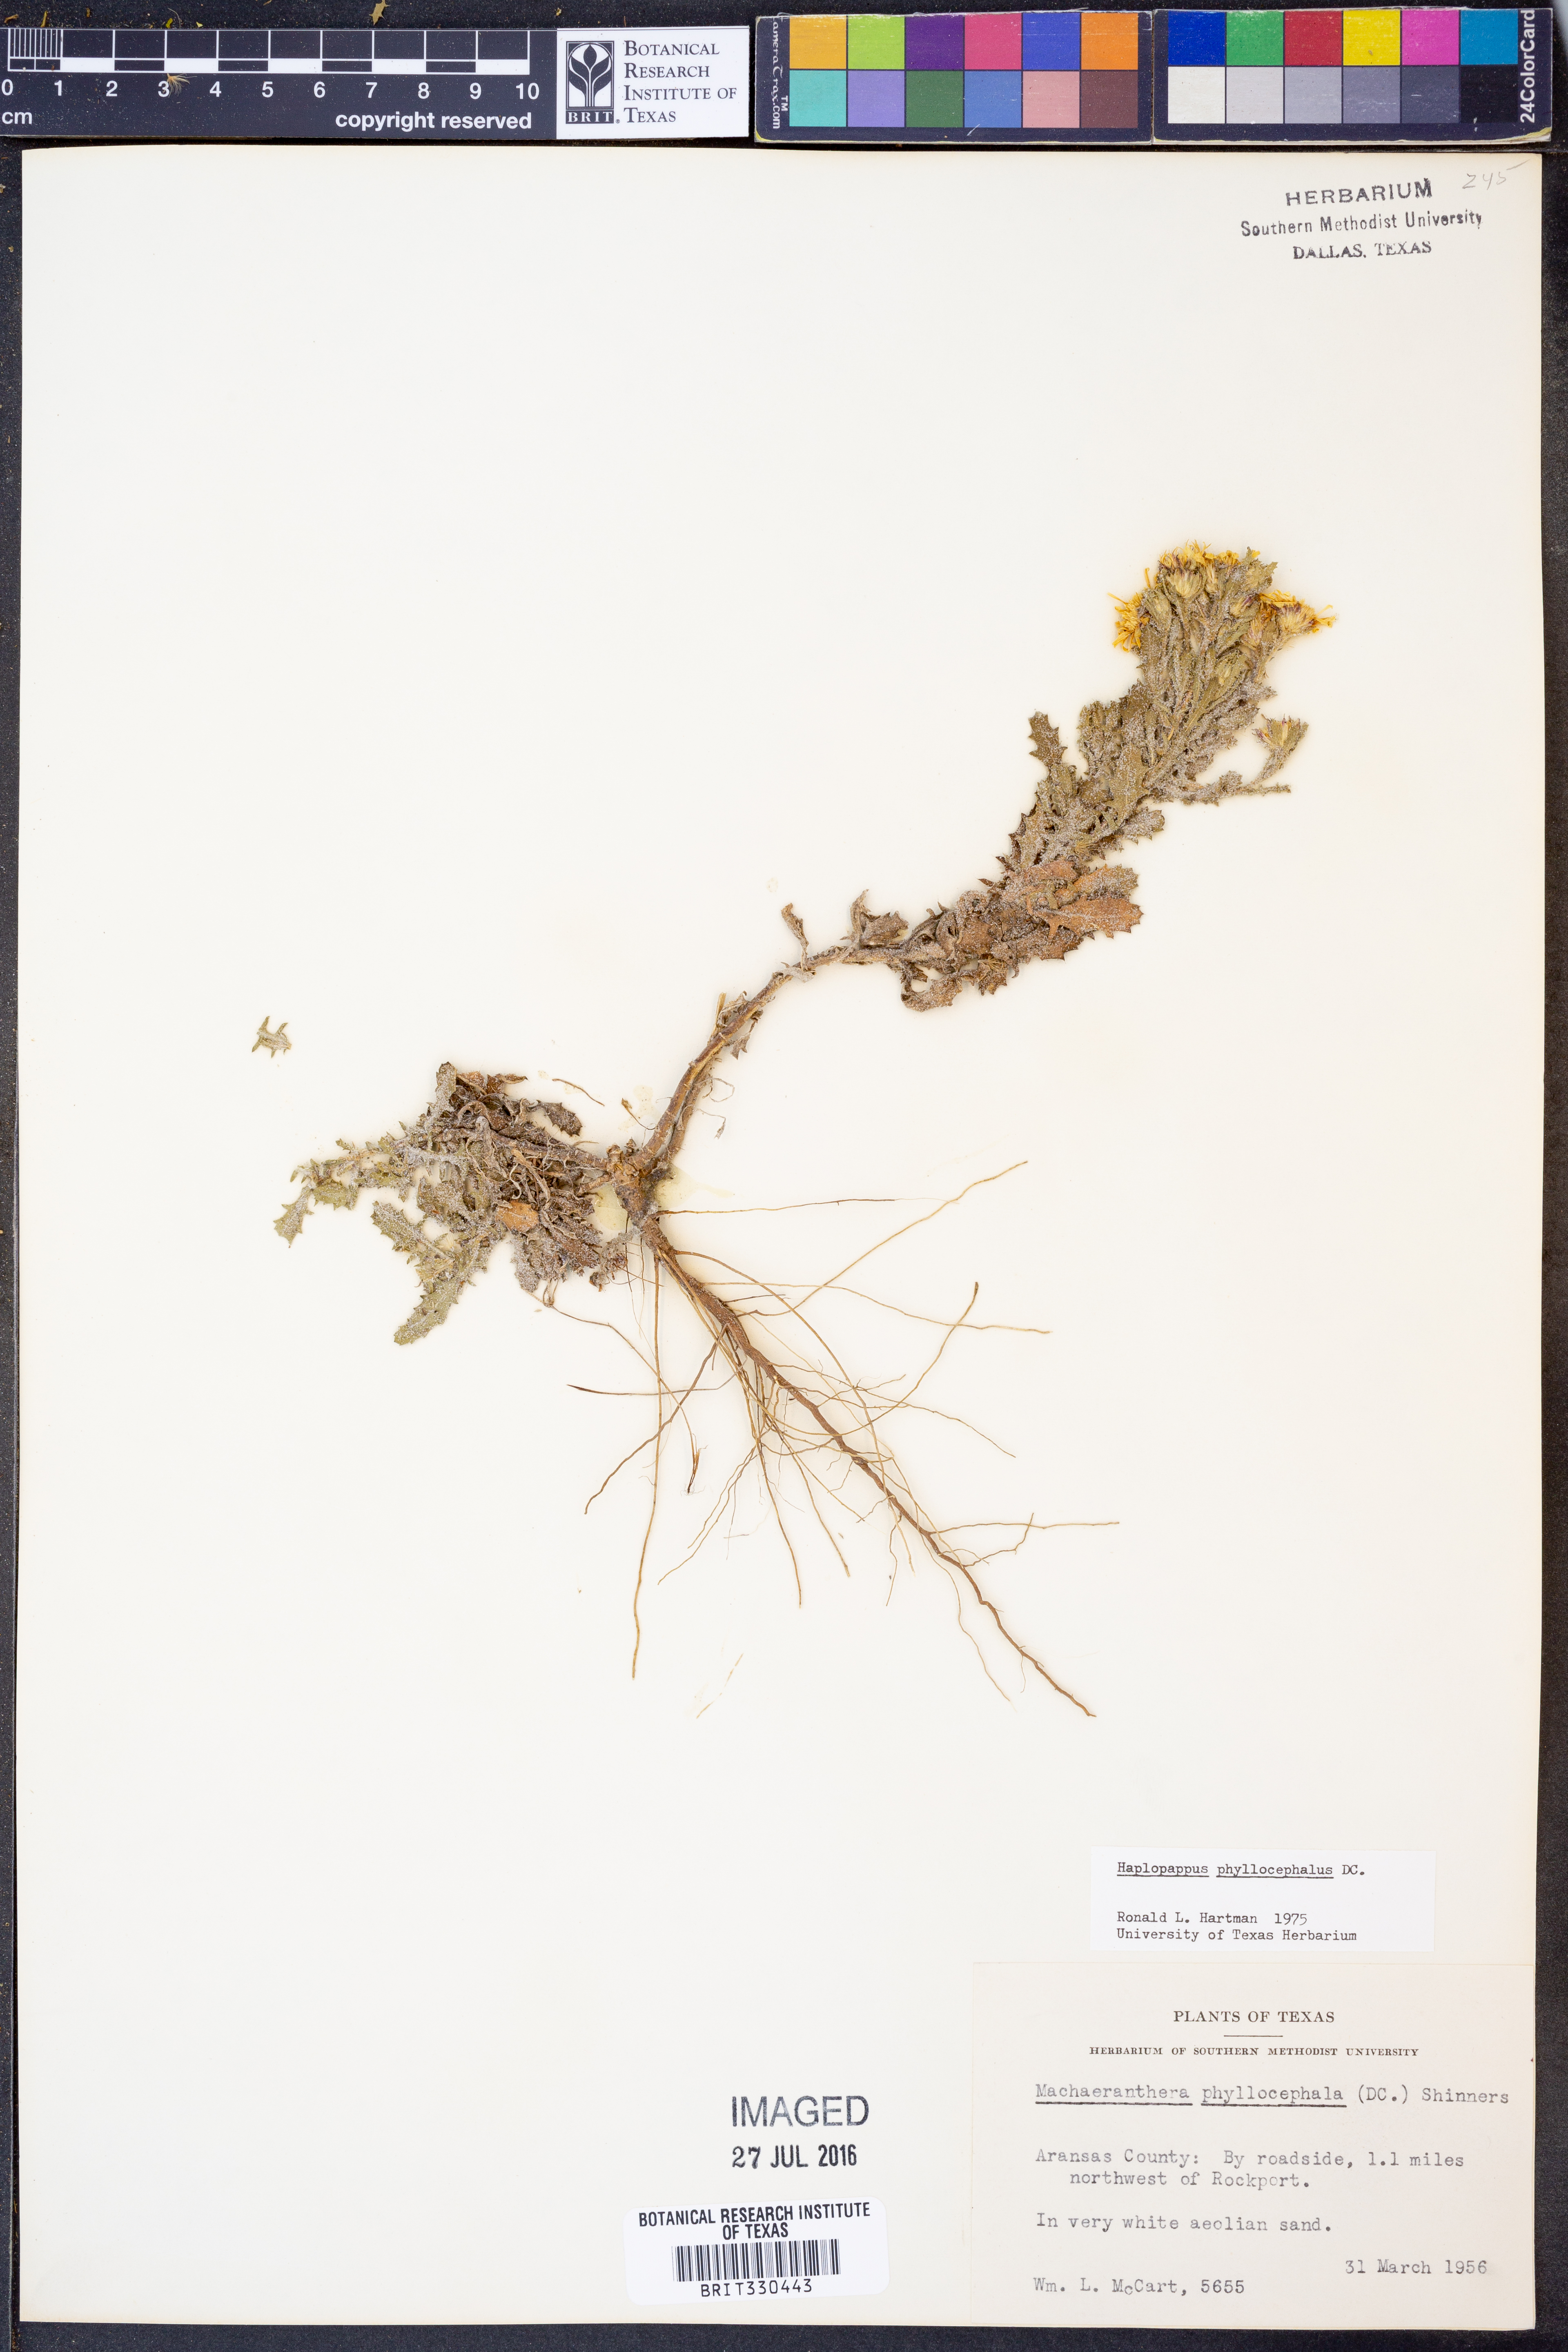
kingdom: Plantae
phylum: Tracheophyta
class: Magnoliopsida
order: Asterales
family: Asteraceae
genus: Rayjacksonia
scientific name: Rayjacksonia phyllocephala
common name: Gulf coast camphor daisy
